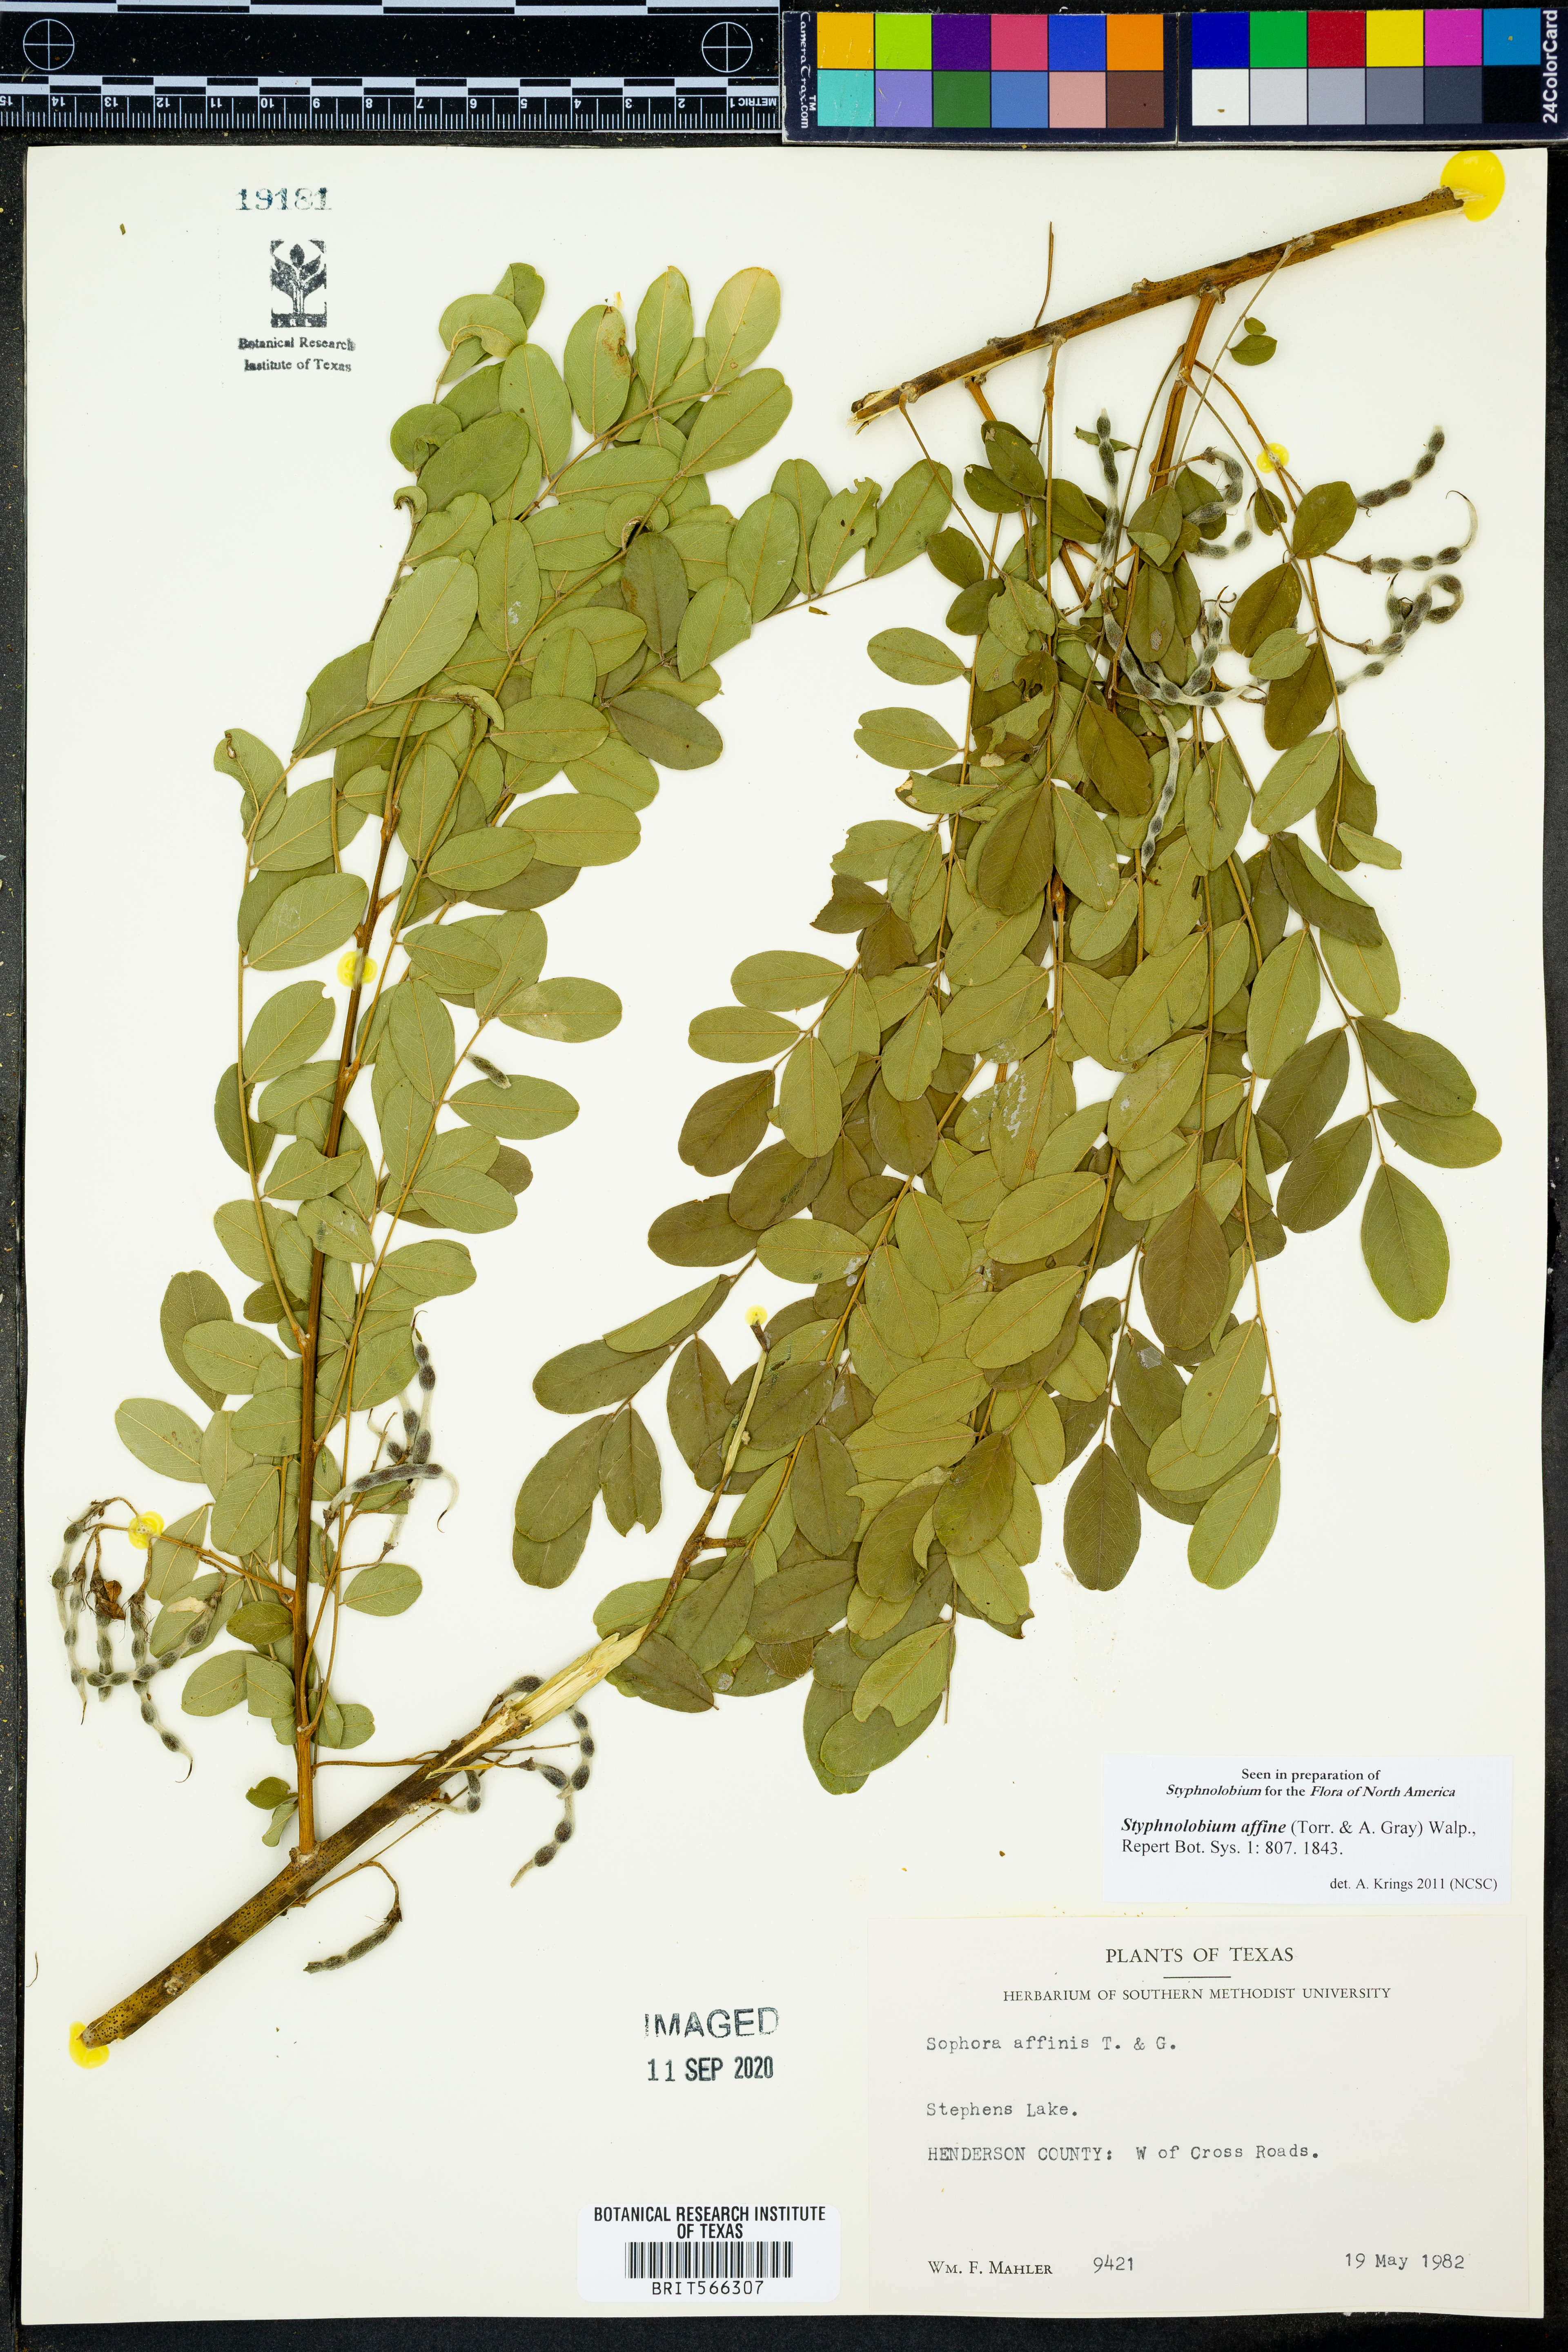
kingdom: Plantae
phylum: Tracheophyta
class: Magnoliopsida
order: Fabales
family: Fabaceae
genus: Styphnolobium
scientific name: Styphnolobium affine
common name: Texas sophora
